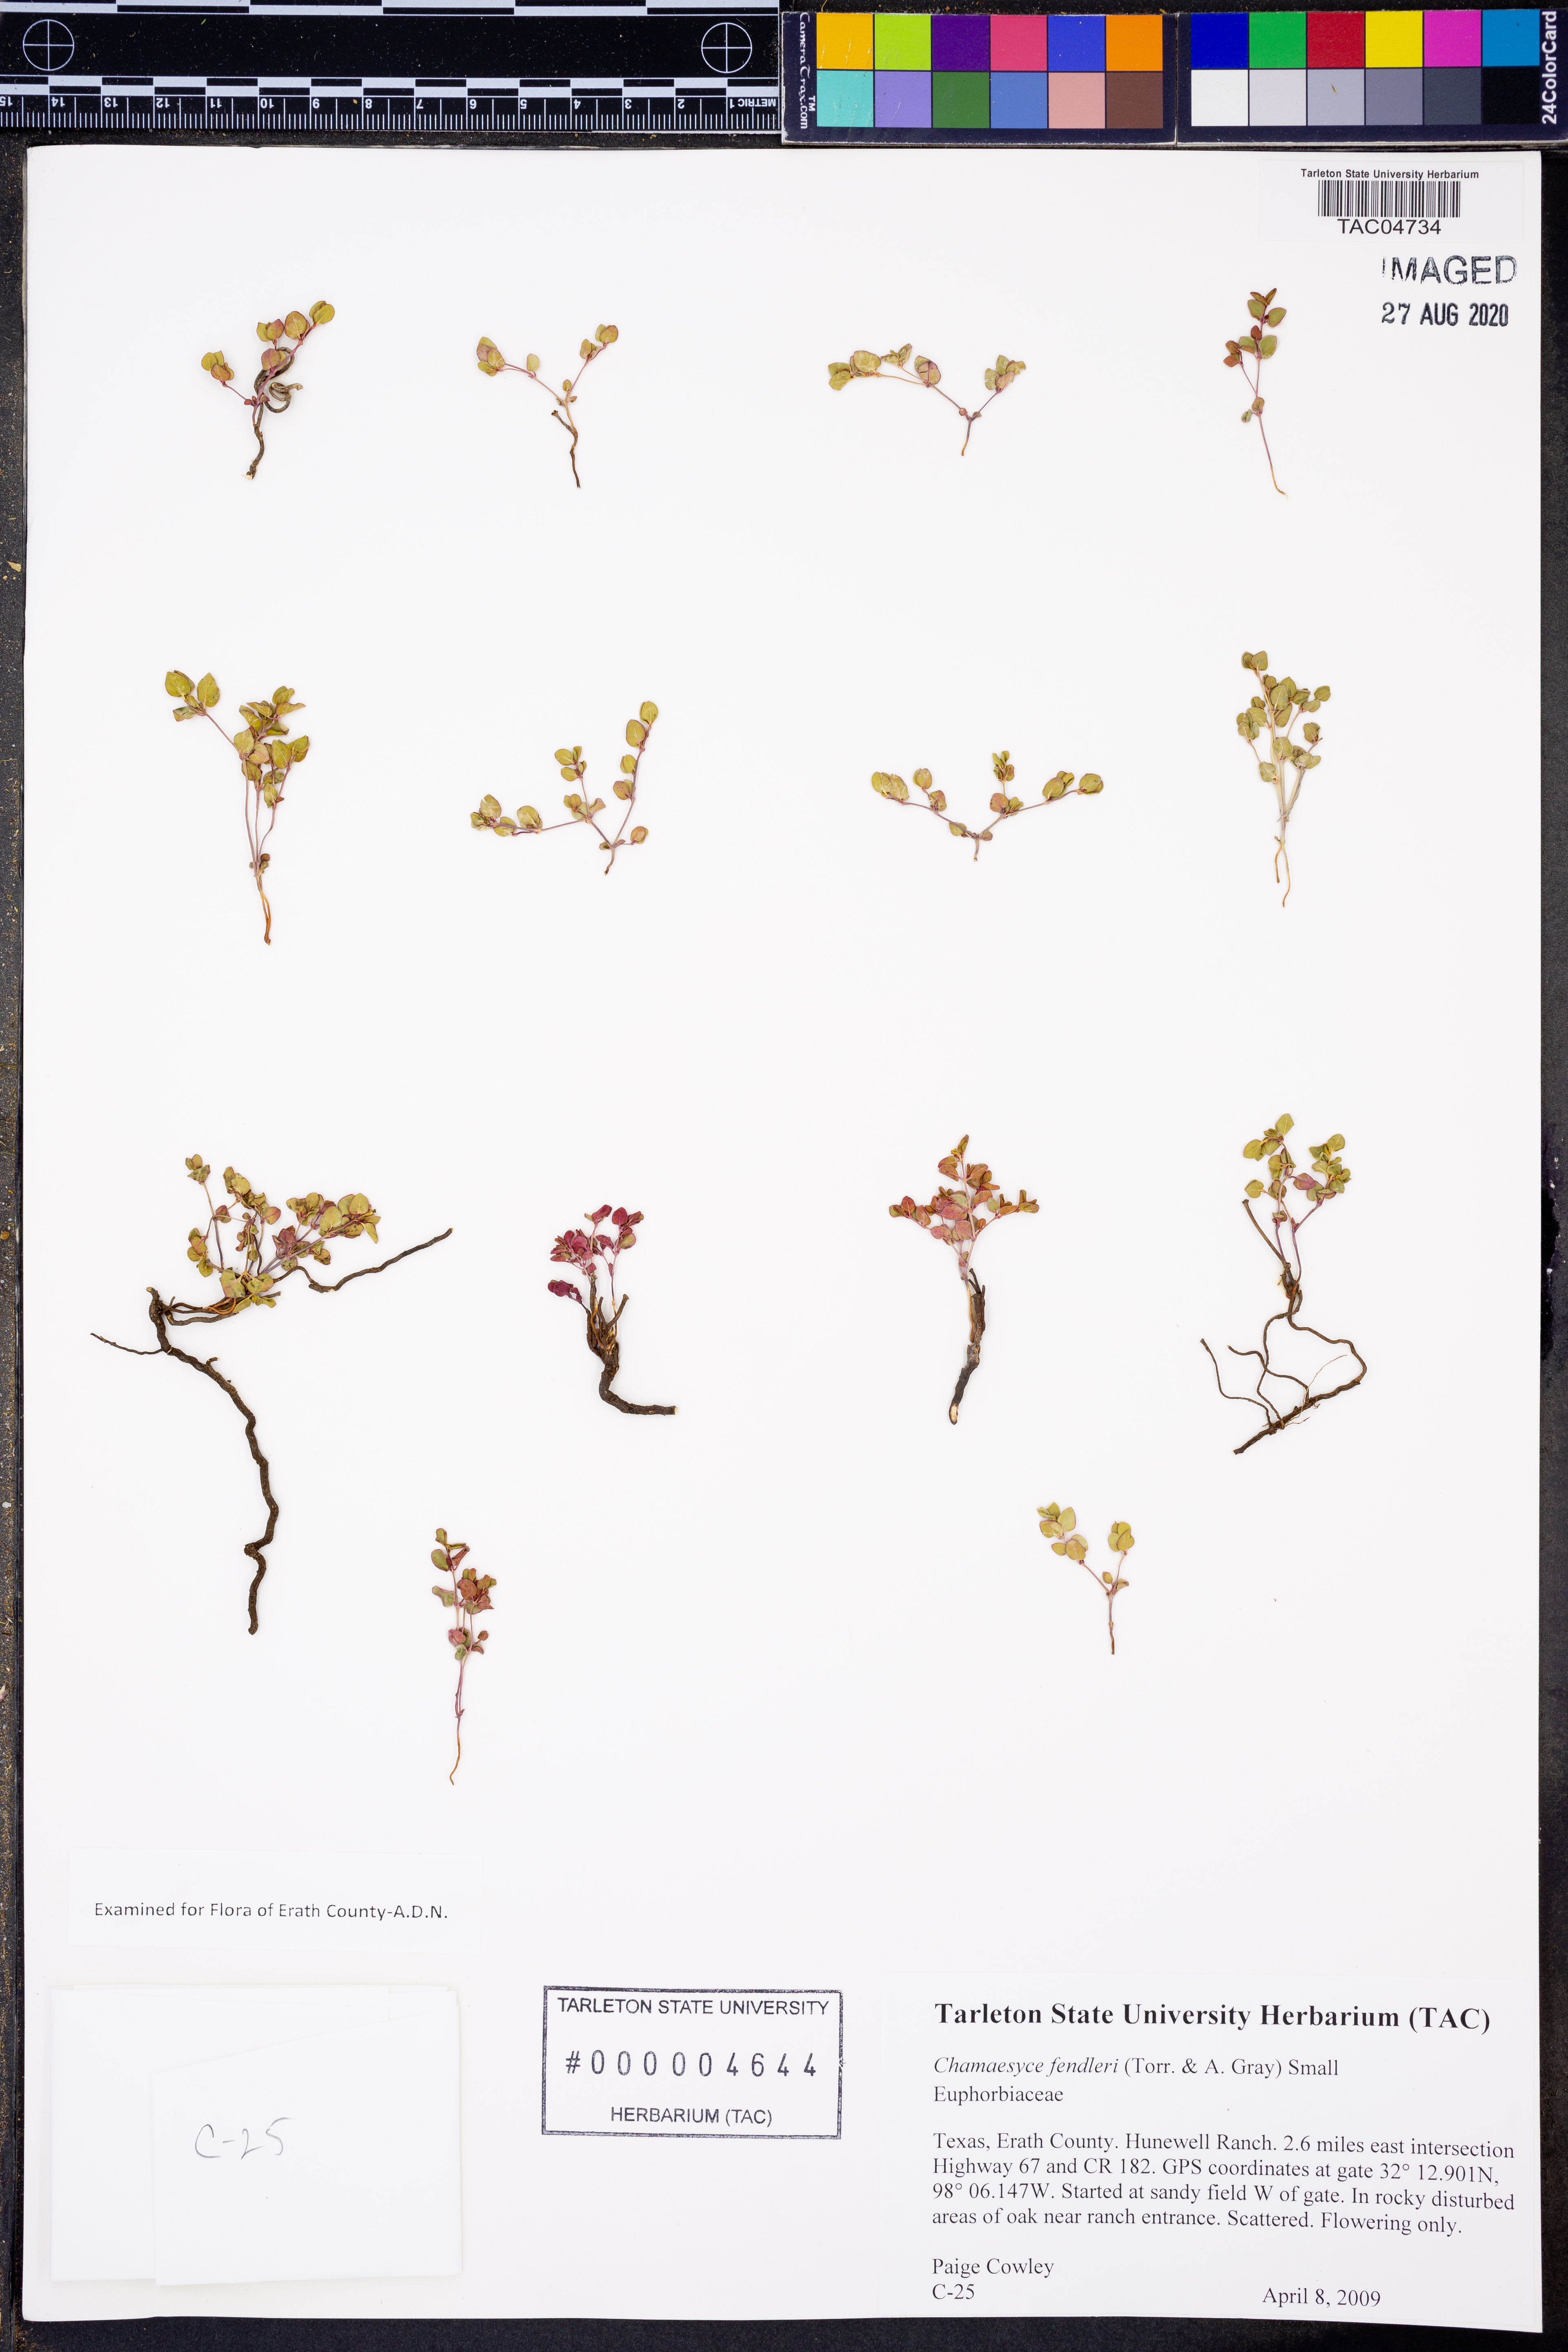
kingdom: Plantae
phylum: Tracheophyta
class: Magnoliopsida
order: Malpighiales
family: Euphorbiaceae
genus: Euphorbia
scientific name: Euphorbia fendleri
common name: Fendler's euphorbia
